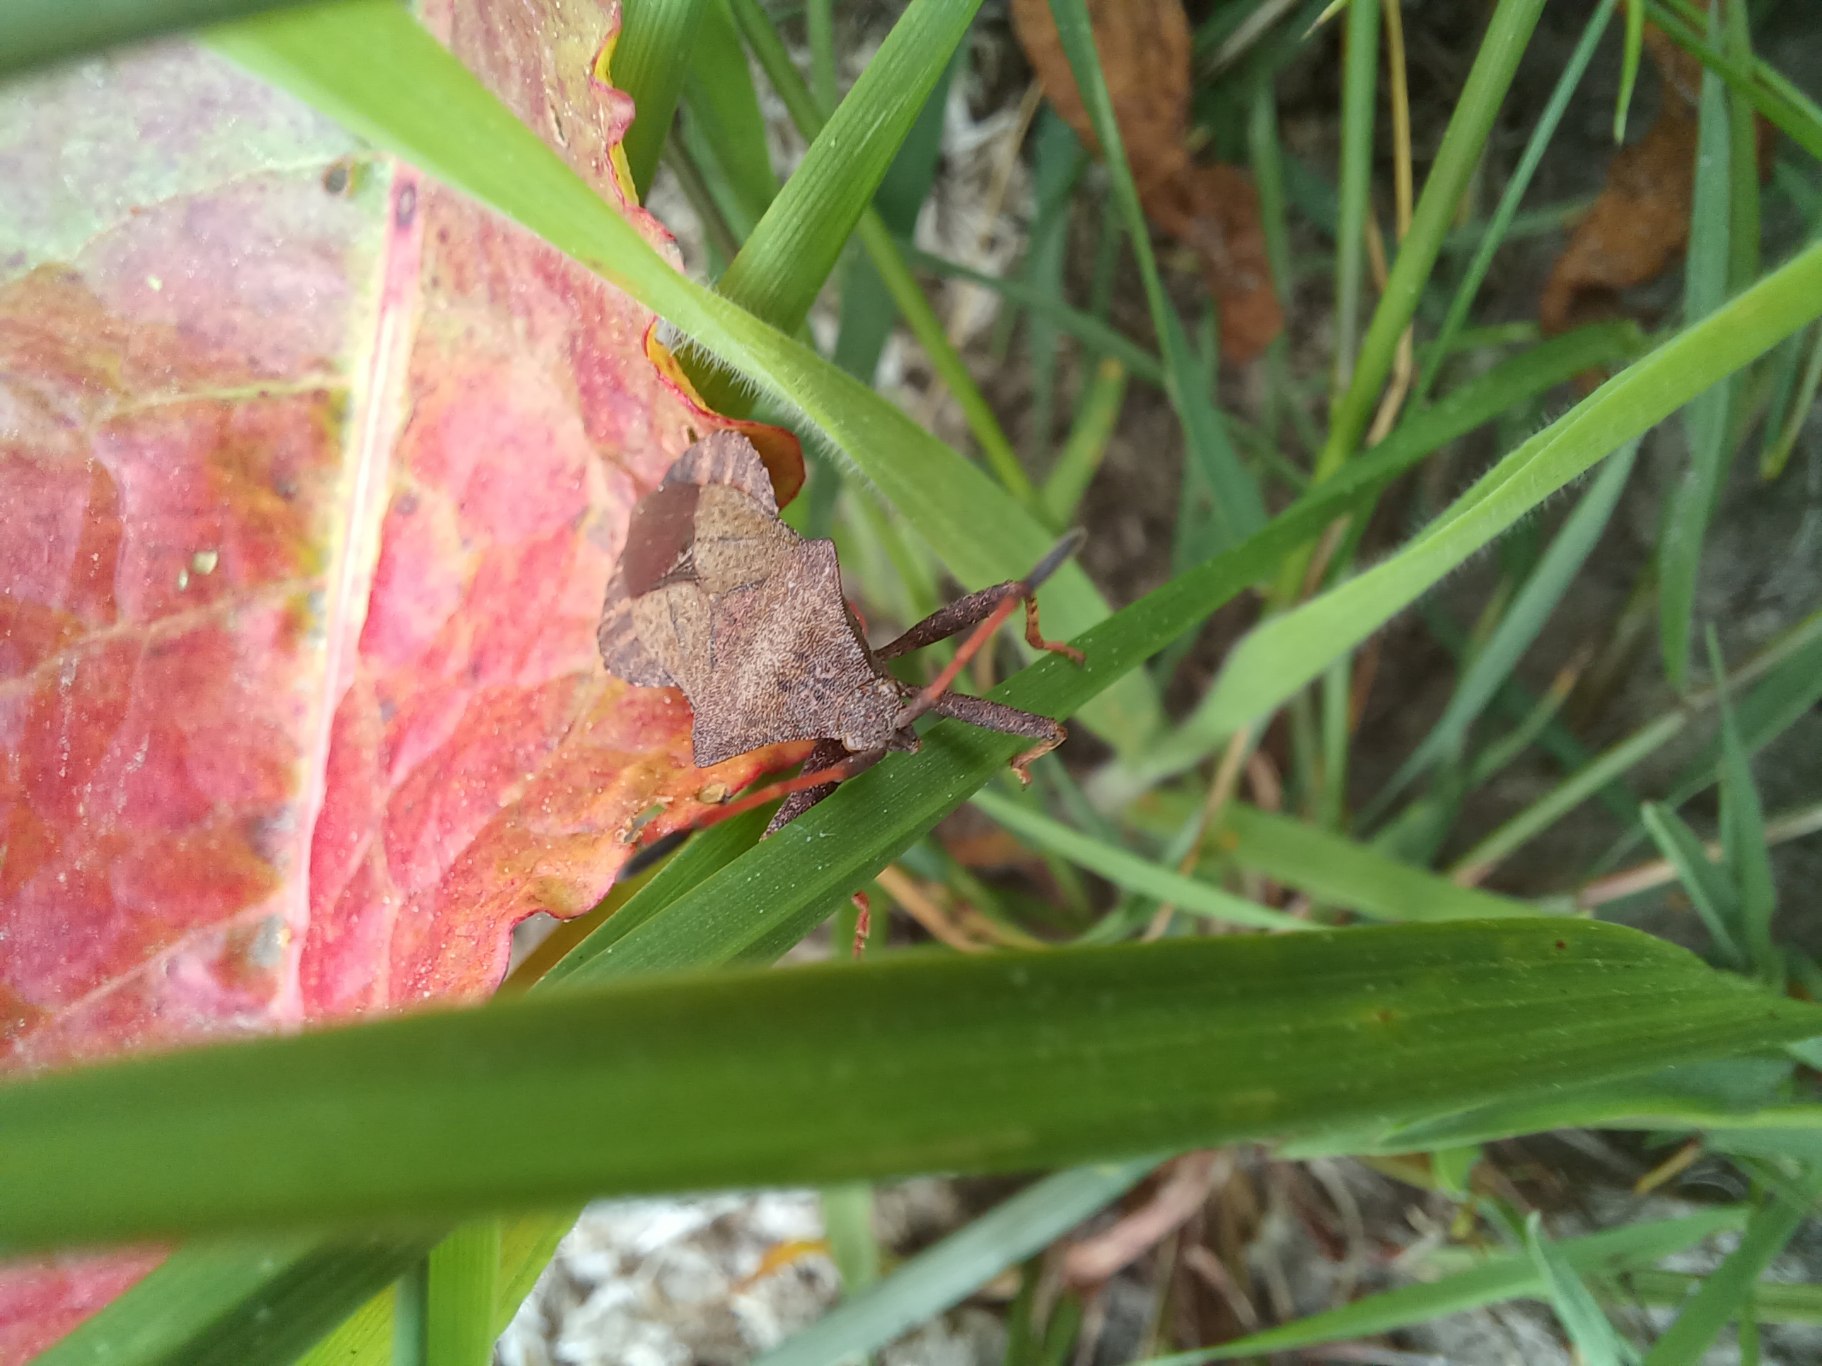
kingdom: Animalia
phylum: Arthropoda
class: Insecta
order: Hemiptera
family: Coreidae
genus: Coreus
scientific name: Coreus marginatus
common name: Skræppetæge
